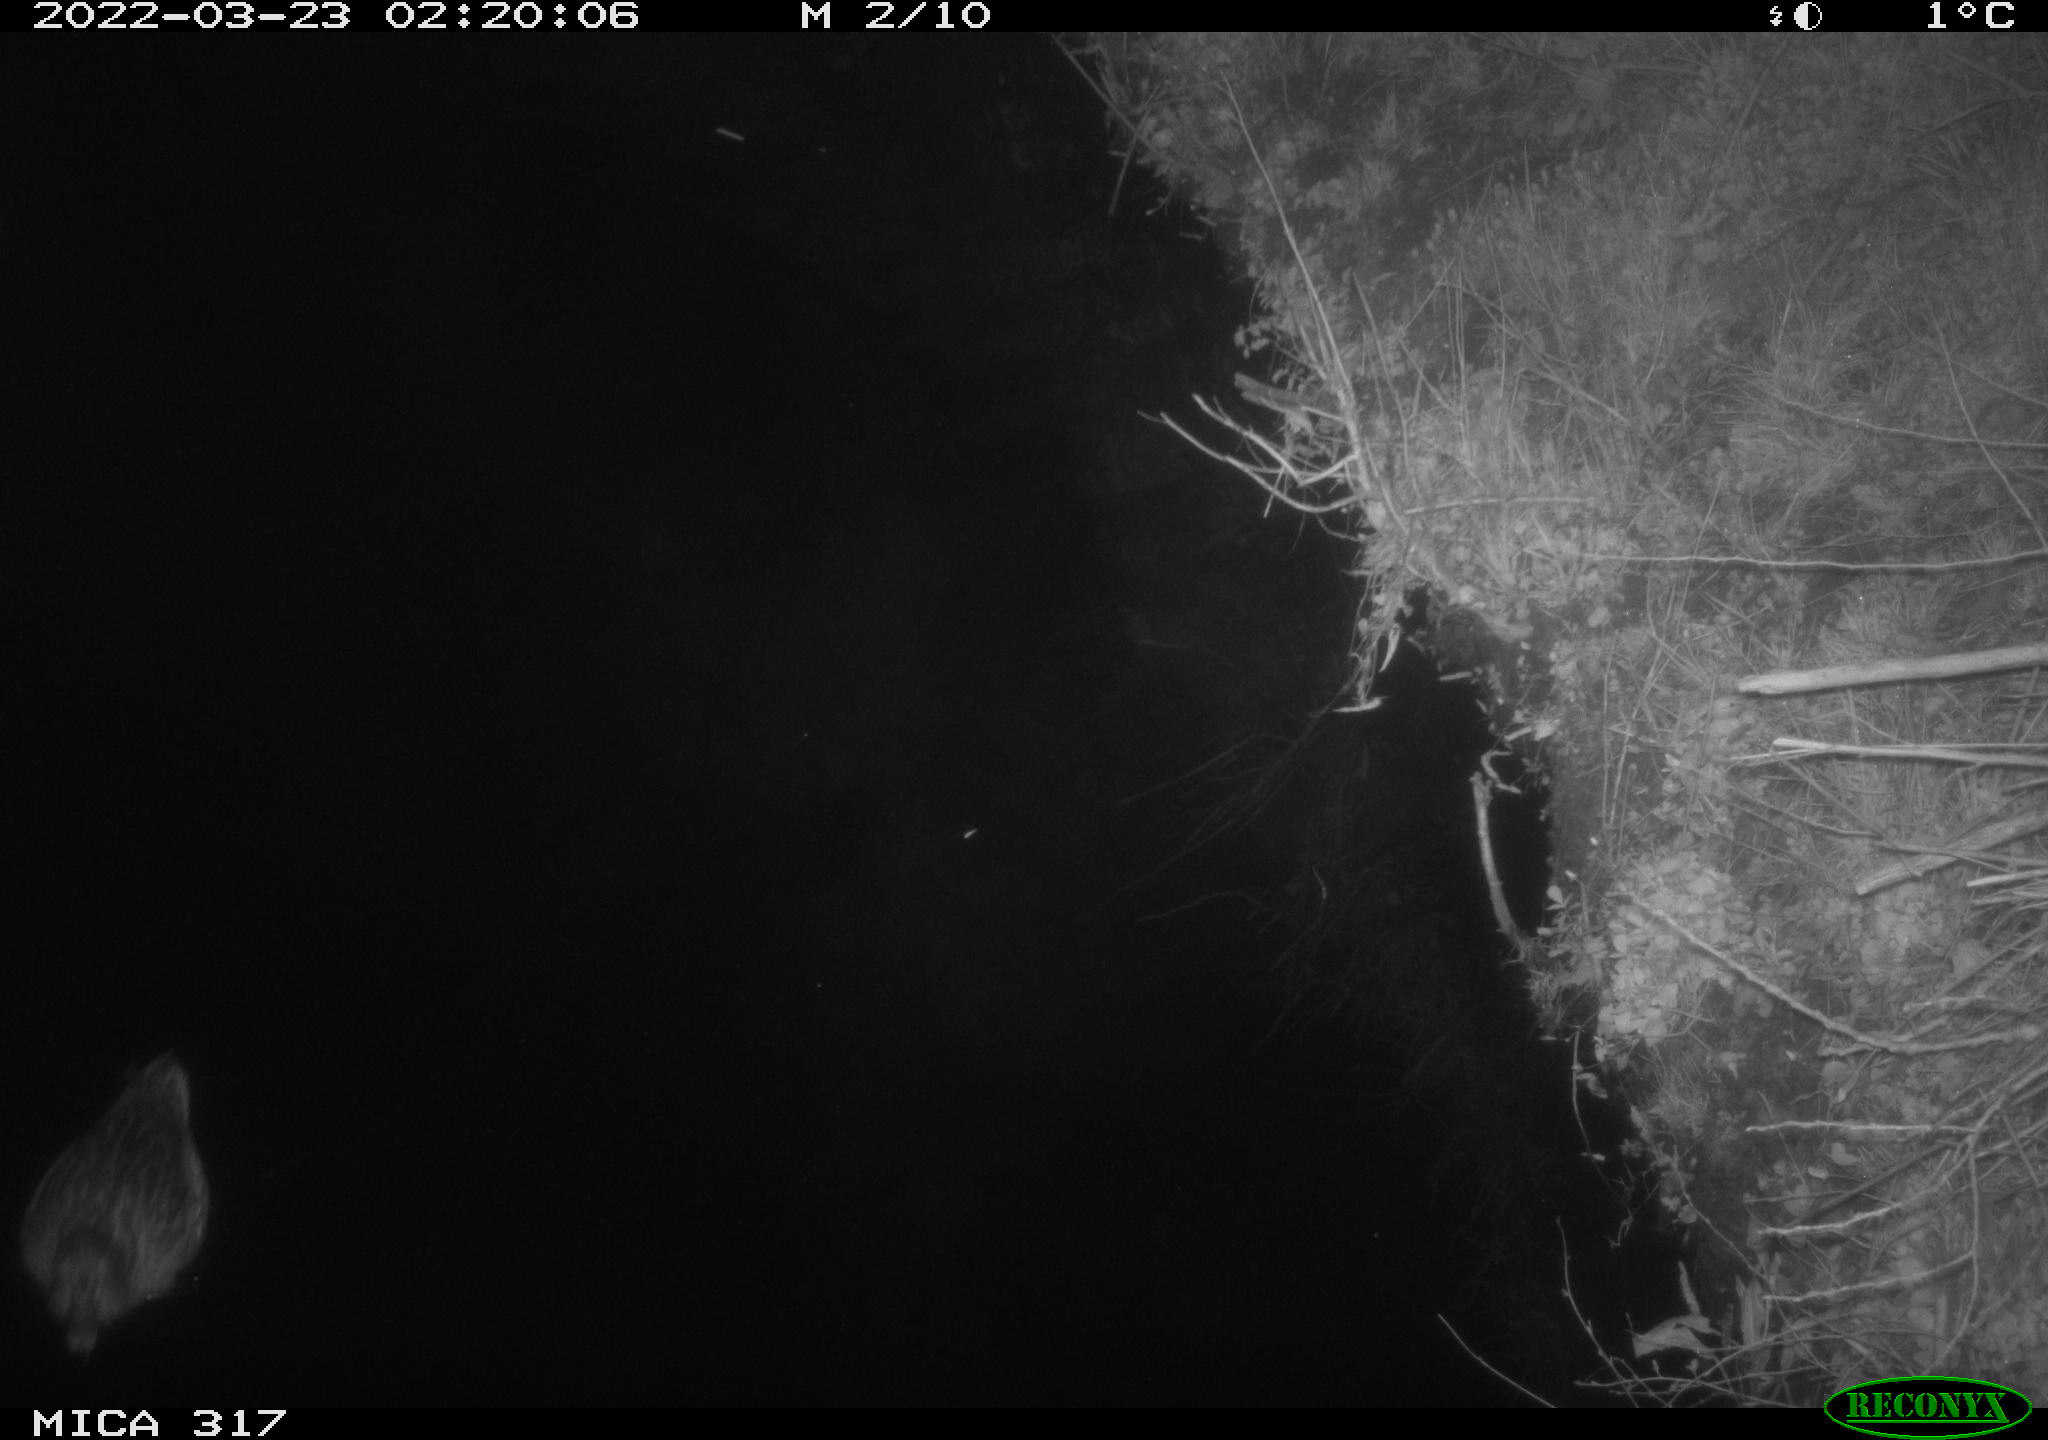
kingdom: Animalia
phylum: Chordata
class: Aves
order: Anseriformes
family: Anatidae
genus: Anas
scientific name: Anas platyrhynchos
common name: Mallard
